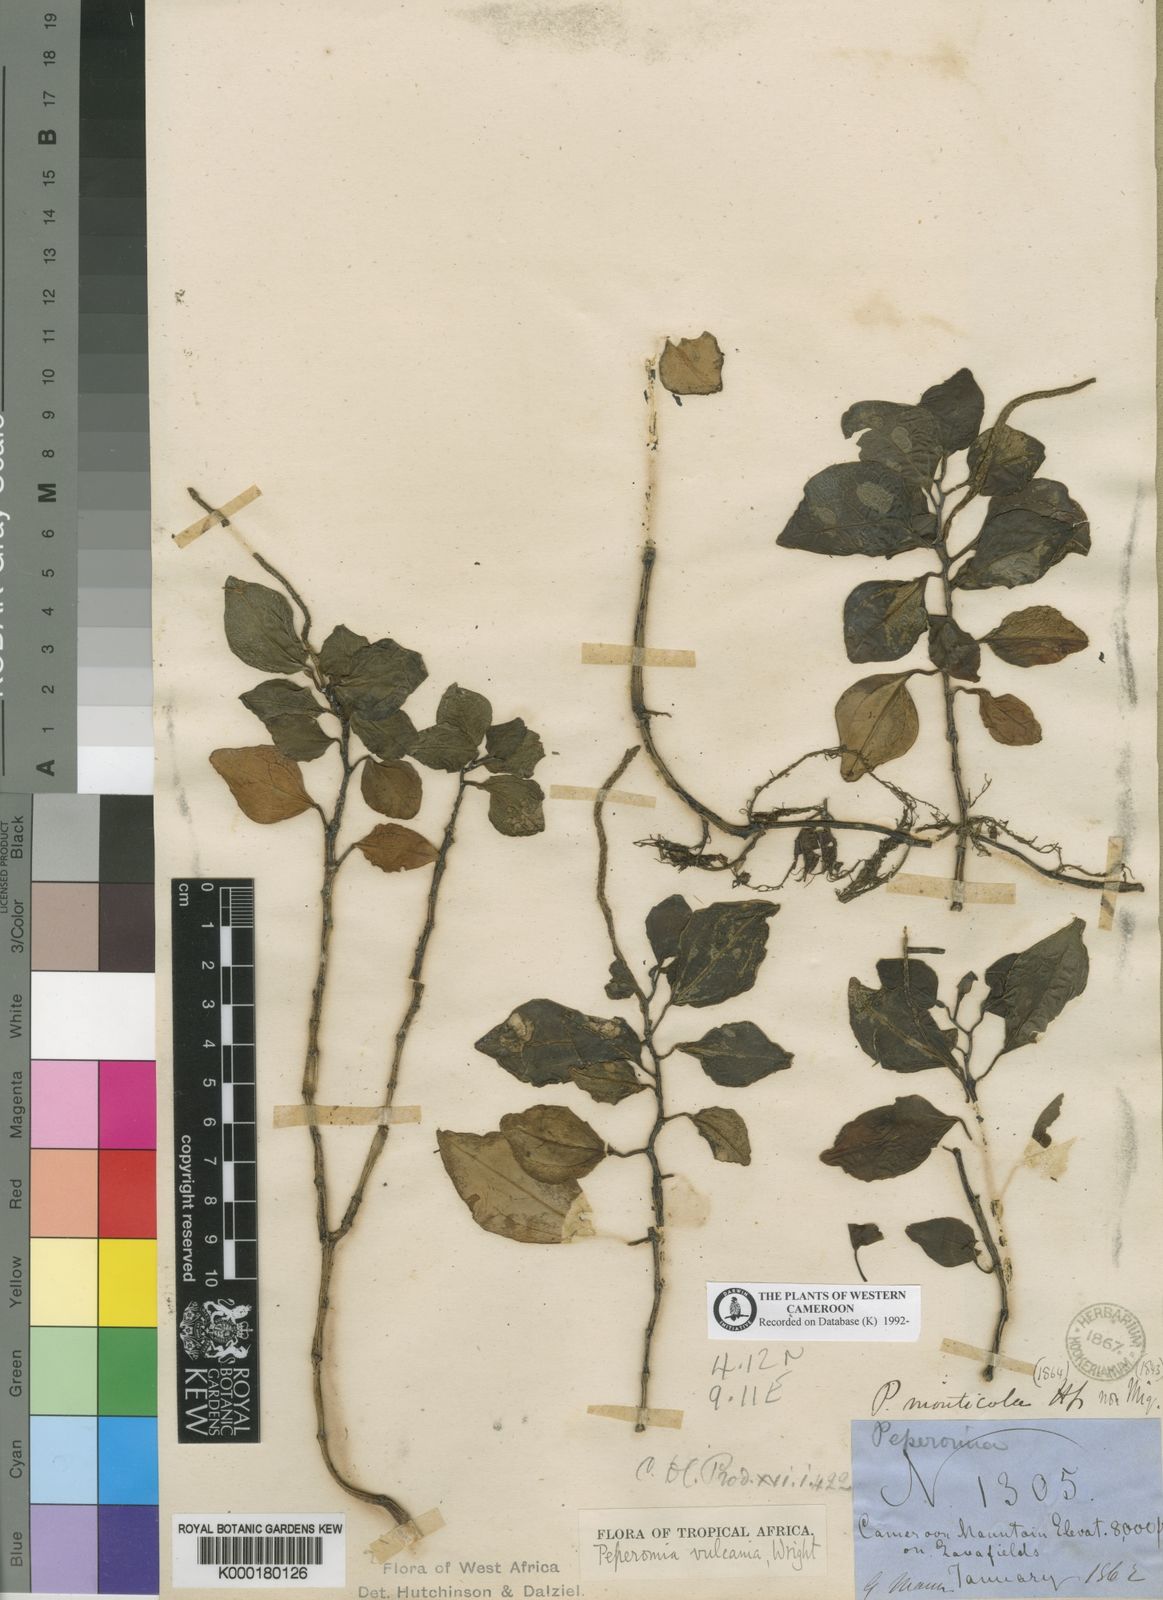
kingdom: Plantae
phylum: Tracheophyta
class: Magnoliopsida
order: Piperales
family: Piperaceae
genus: Peperomia
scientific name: Peperomia vulcanica
